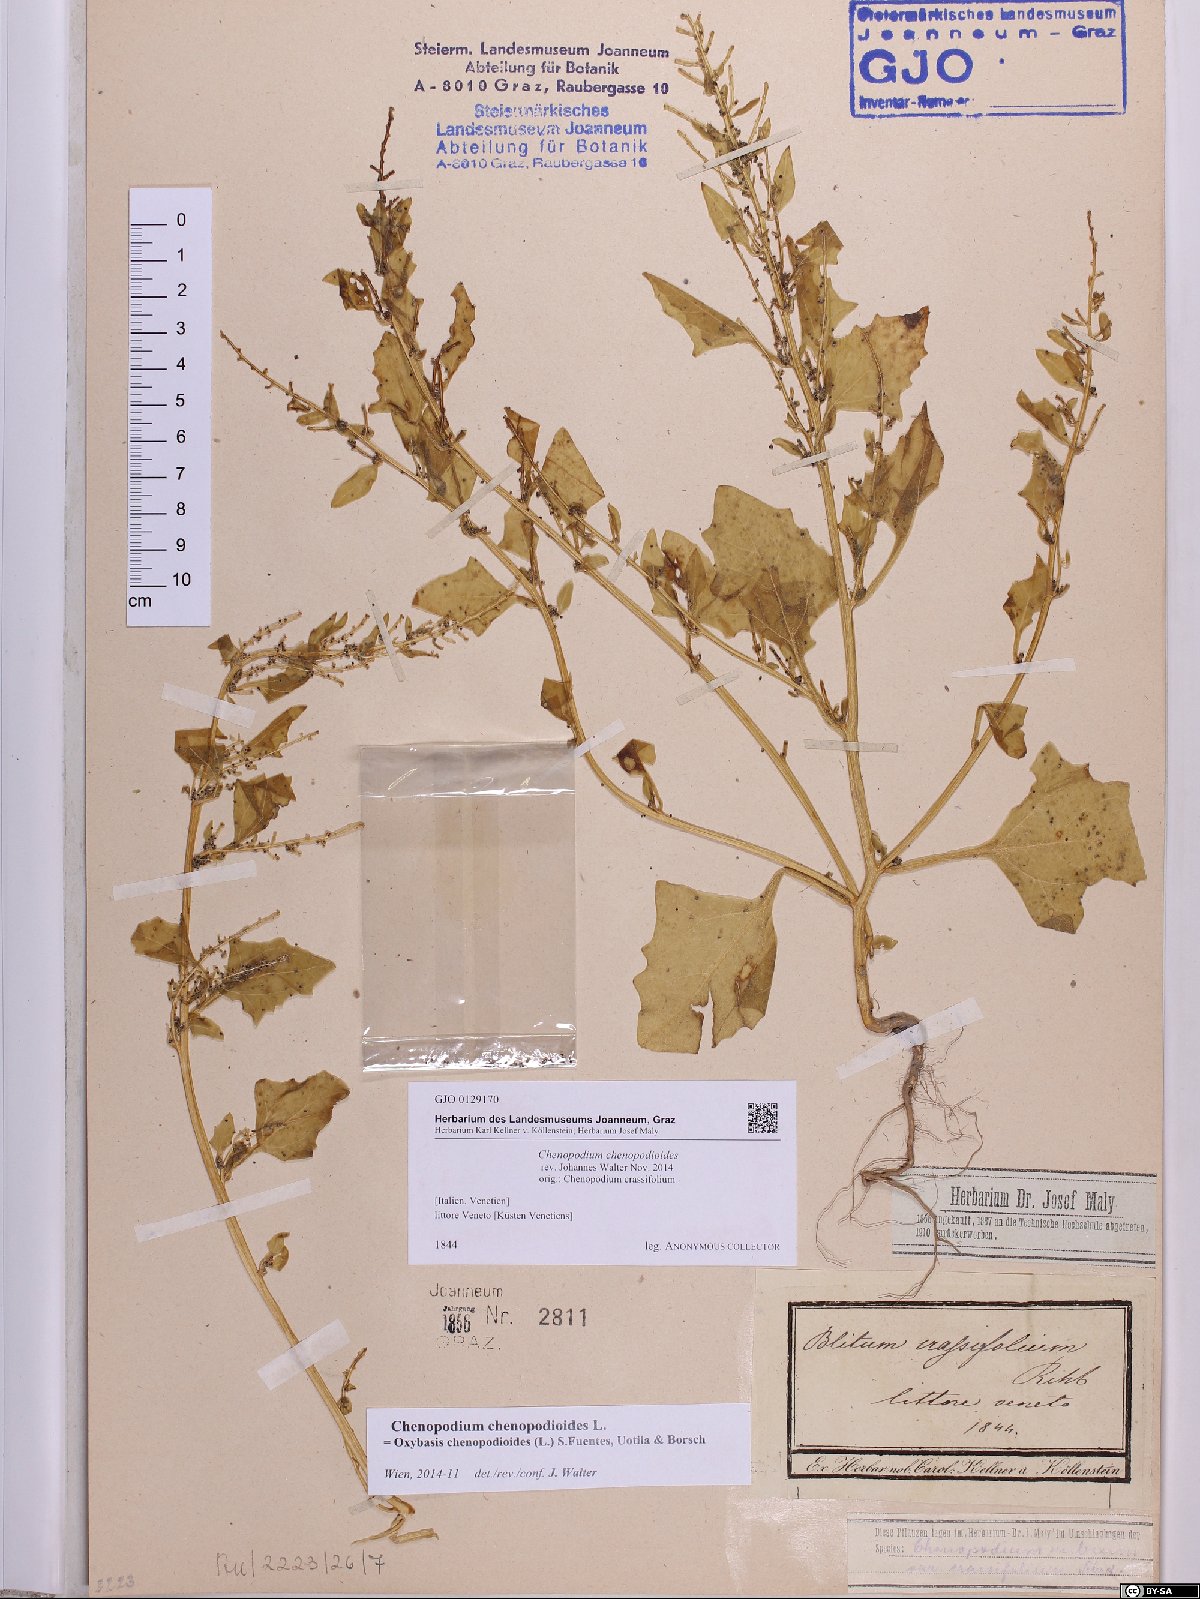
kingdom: Plantae
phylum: Tracheophyta
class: Magnoliopsida
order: Caryophyllales
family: Amaranthaceae
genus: Oxybasis
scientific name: Oxybasis chenopodioides
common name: Saltmarsh goosefoot
